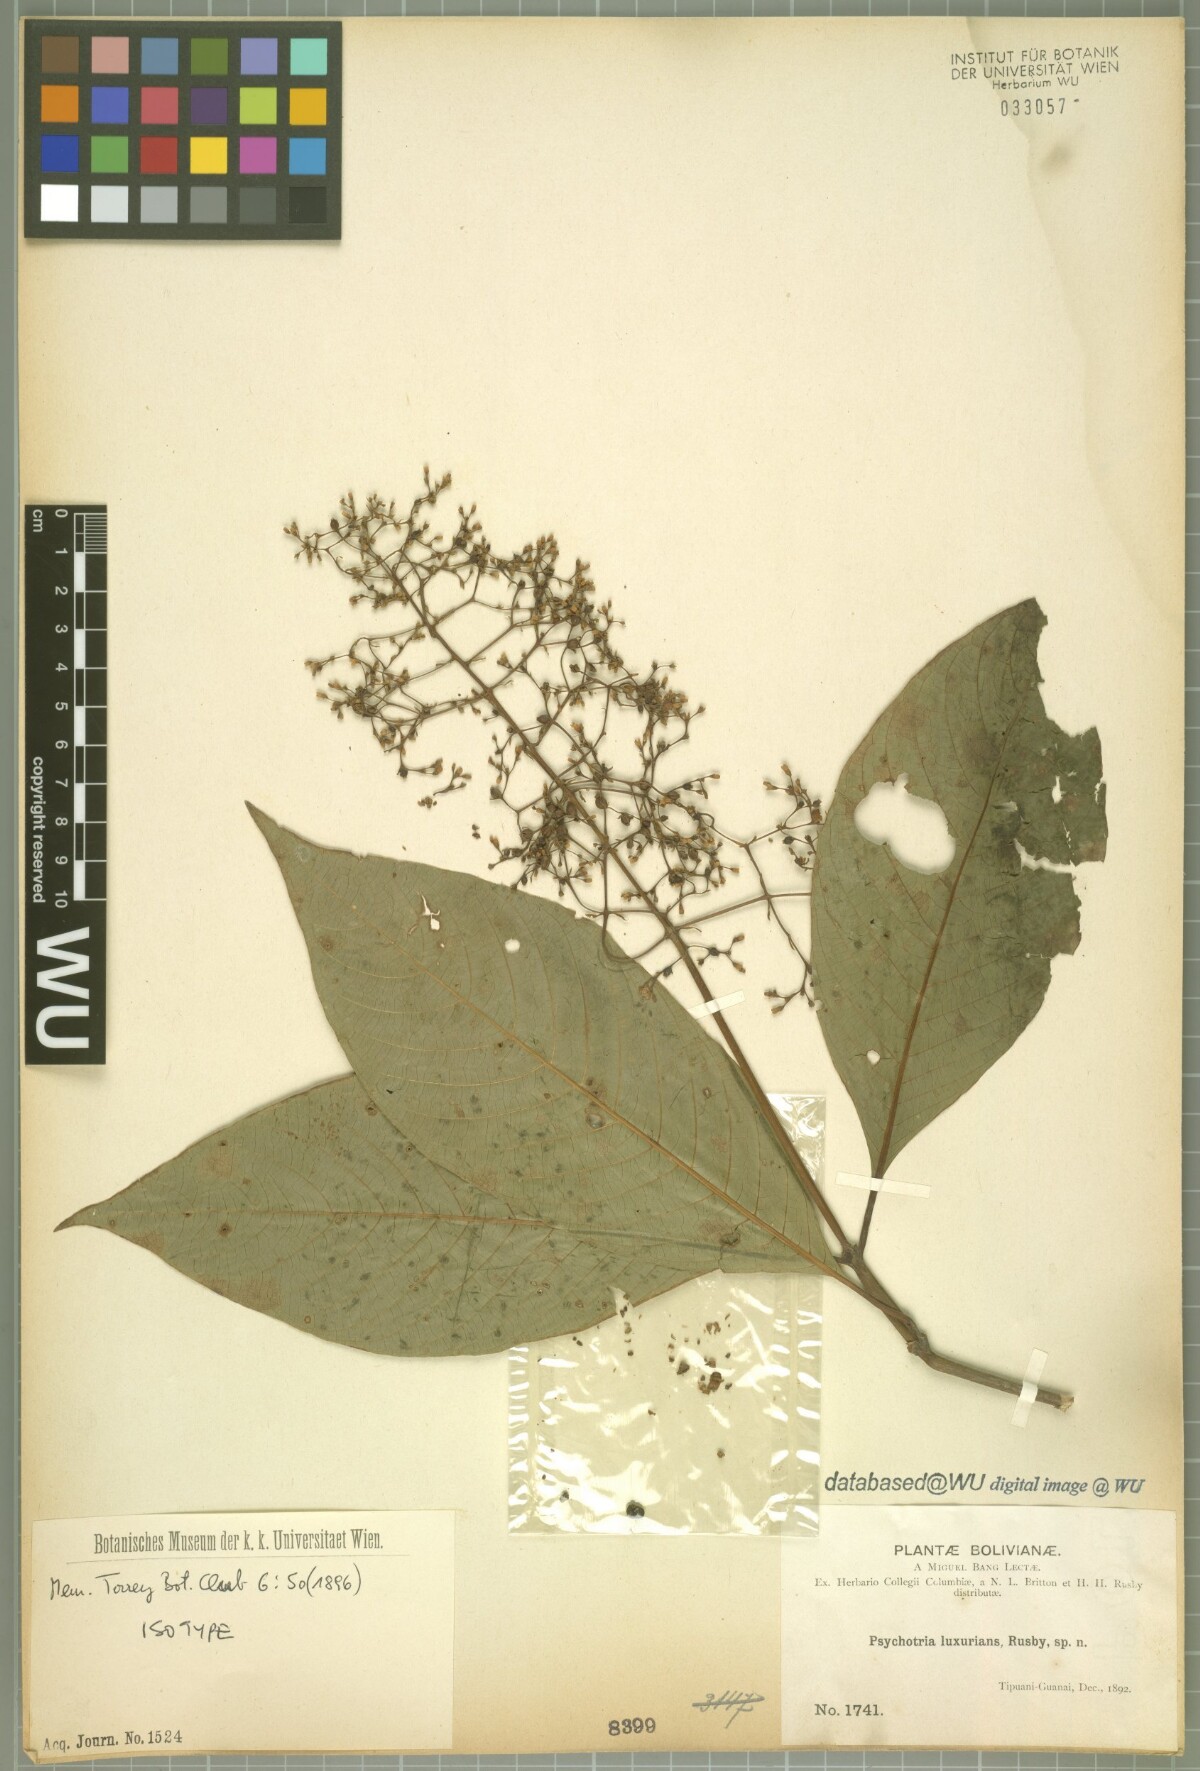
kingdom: Plantae
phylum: Tracheophyta
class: Magnoliopsida
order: Gentianales
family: Rubiaceae
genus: Palicourea
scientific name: Palicourea luxurians
